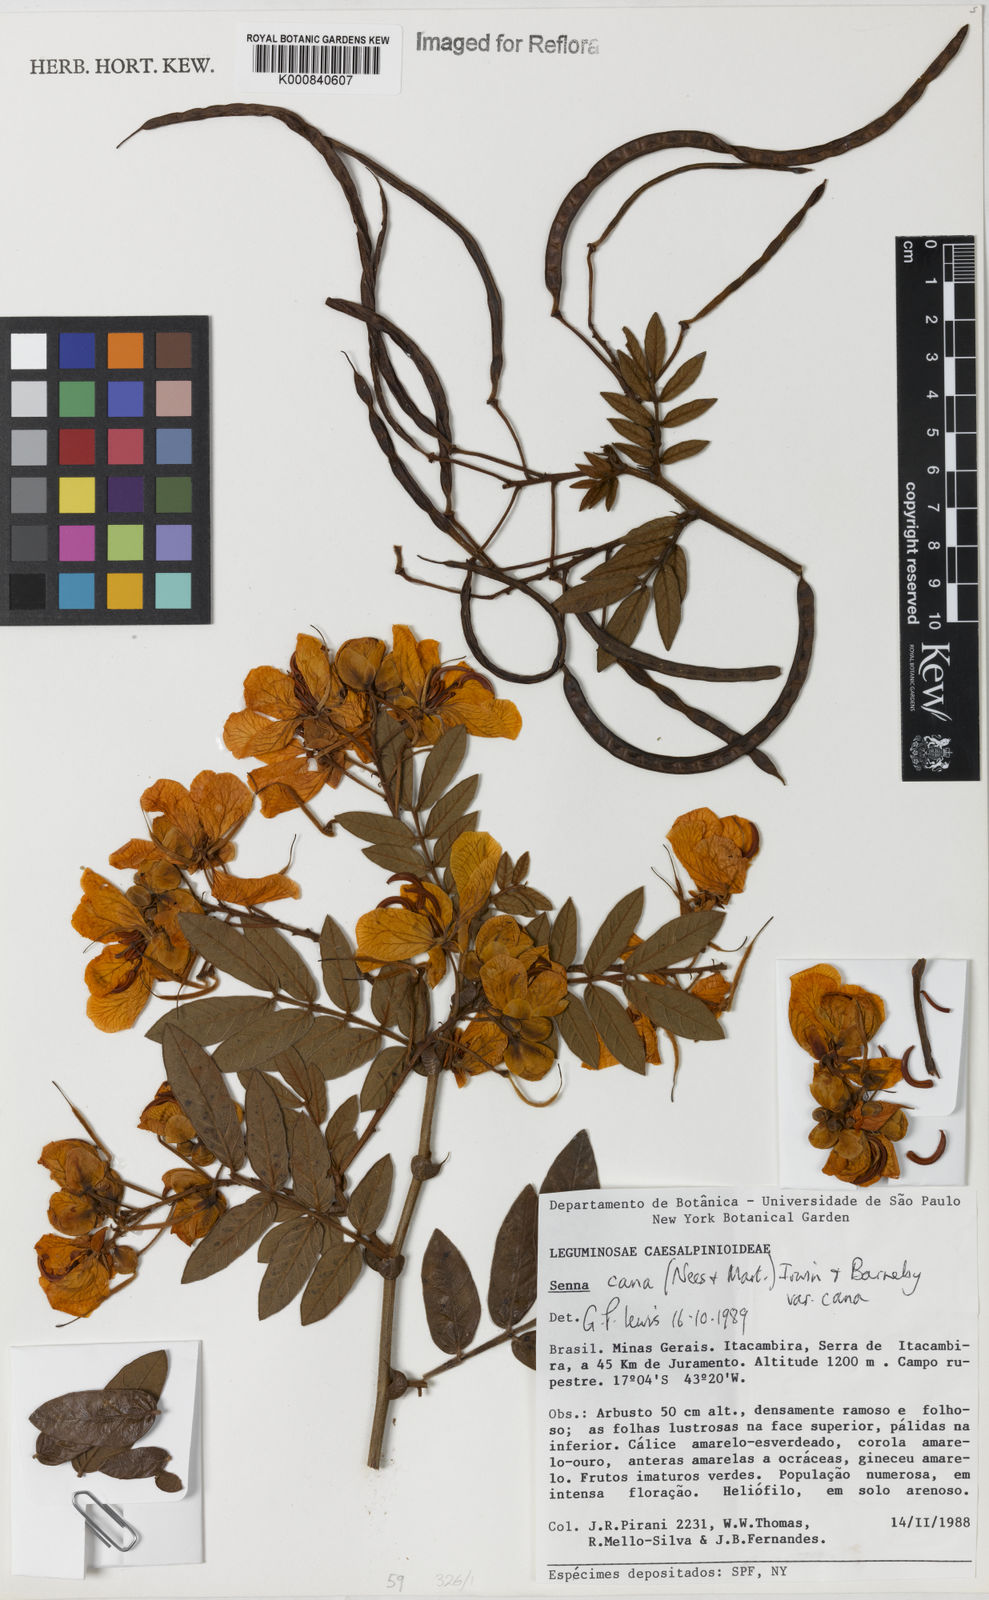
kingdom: Plantae
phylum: Tracheophyta
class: Magnoliopsida
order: Fabales
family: Fabaceae
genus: Senna
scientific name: Senna cana
